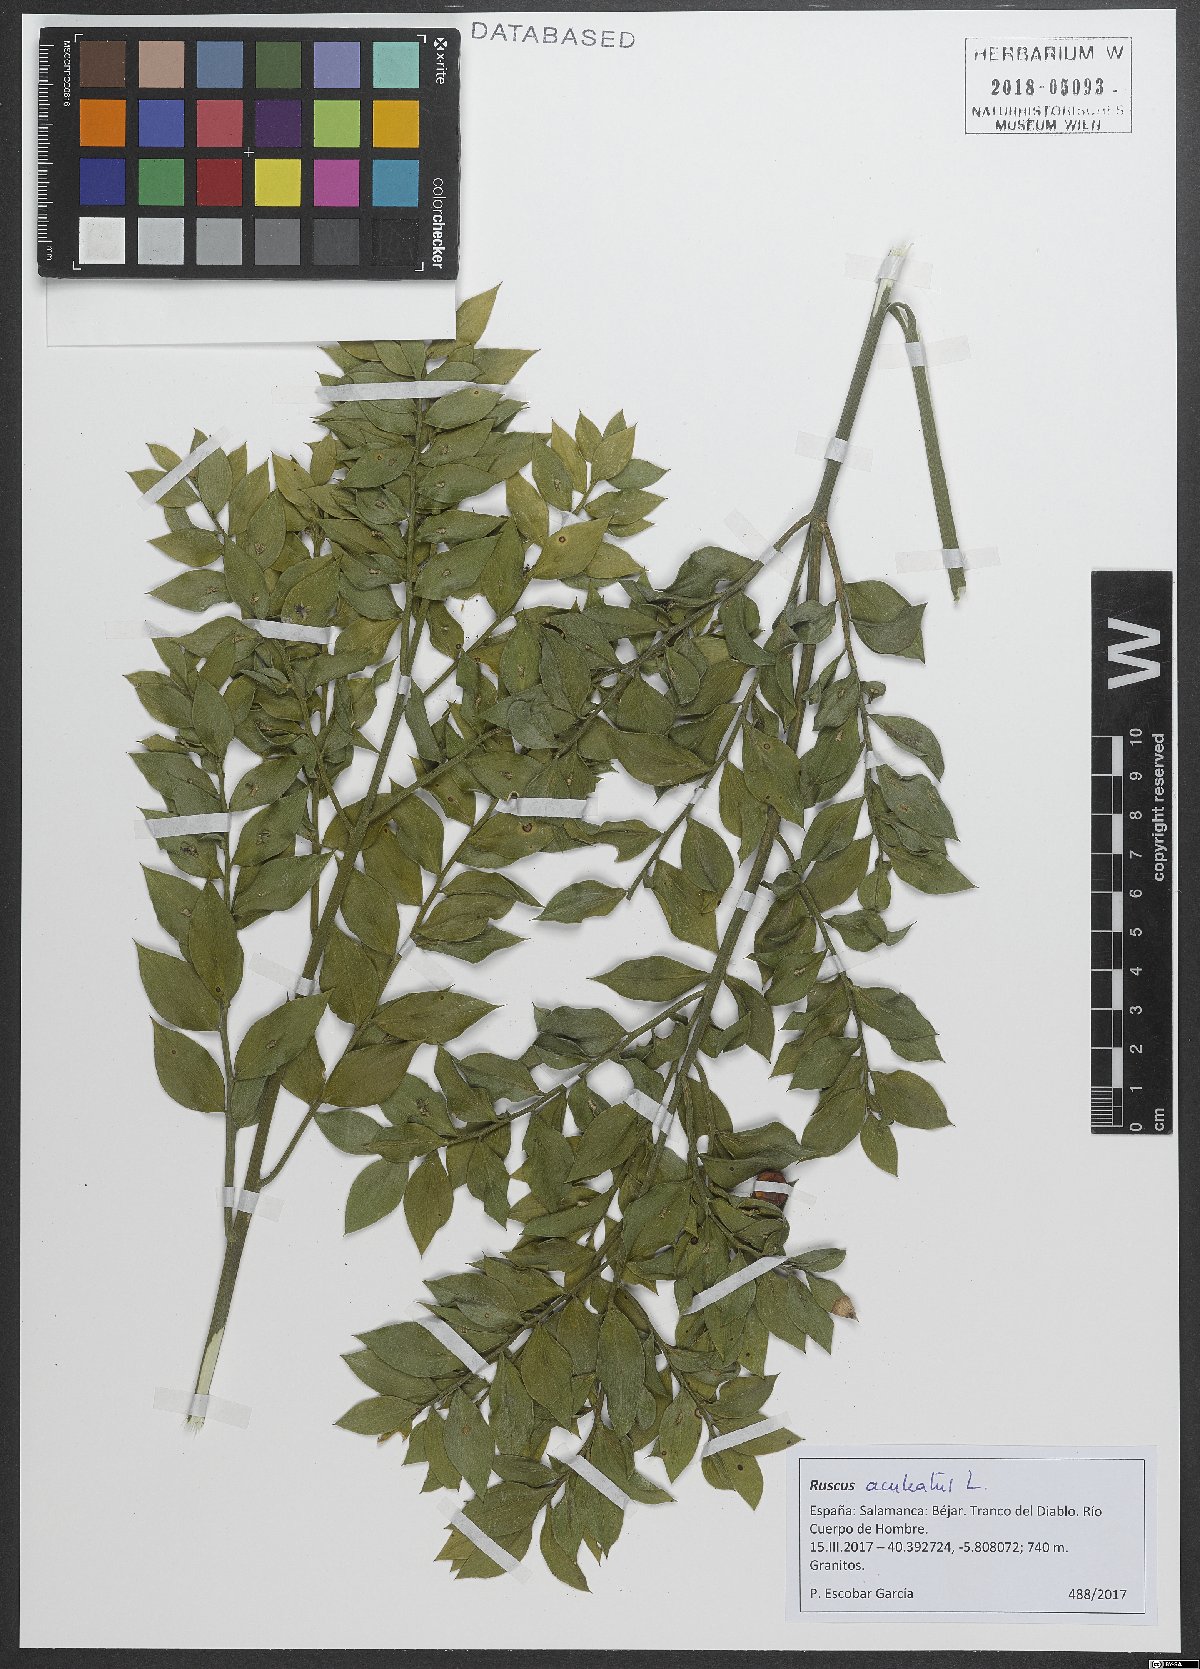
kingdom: Plantae
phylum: Tracheophyta
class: Liliopsida
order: Asparagales
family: Asparagaceae
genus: Ruscus
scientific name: Ruscus aculeatus
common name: Butcher's-broom
